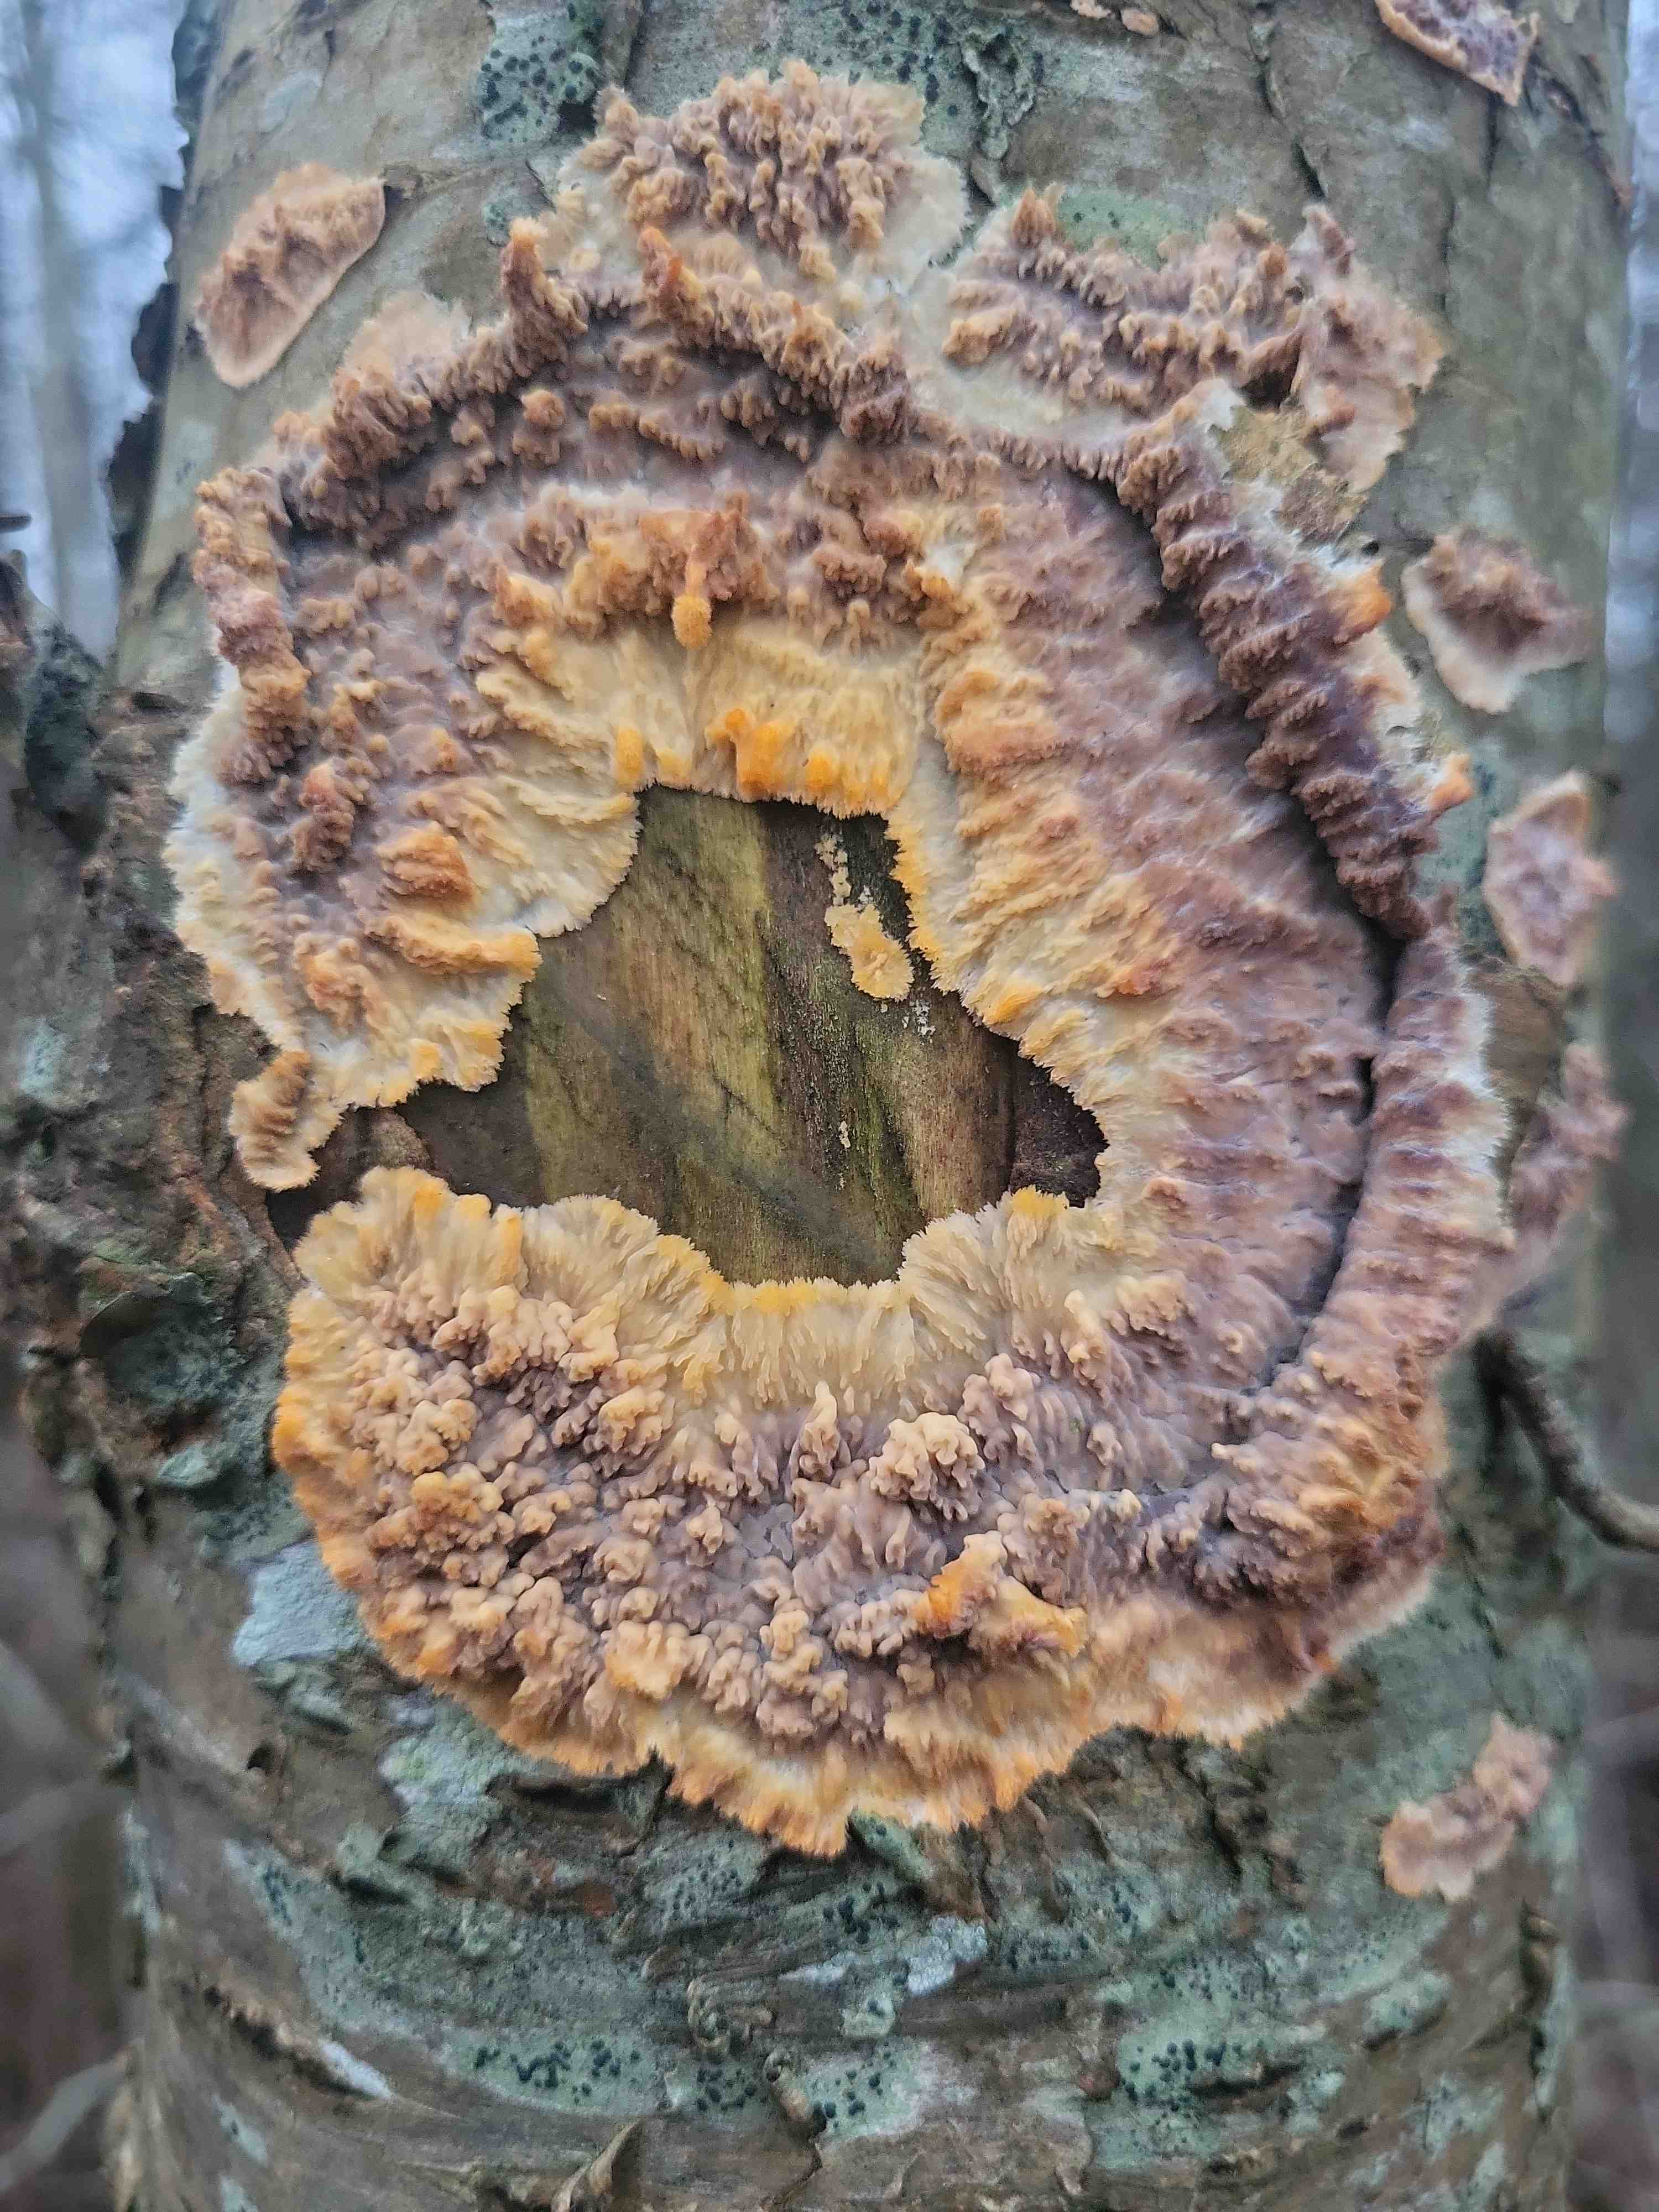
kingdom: Fungi
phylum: Basidiomycota
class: Agaricomycetes
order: Polyporales
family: Meruliaceae
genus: Phlebia
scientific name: Phlebia radiata
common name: stråle-åresvamp
